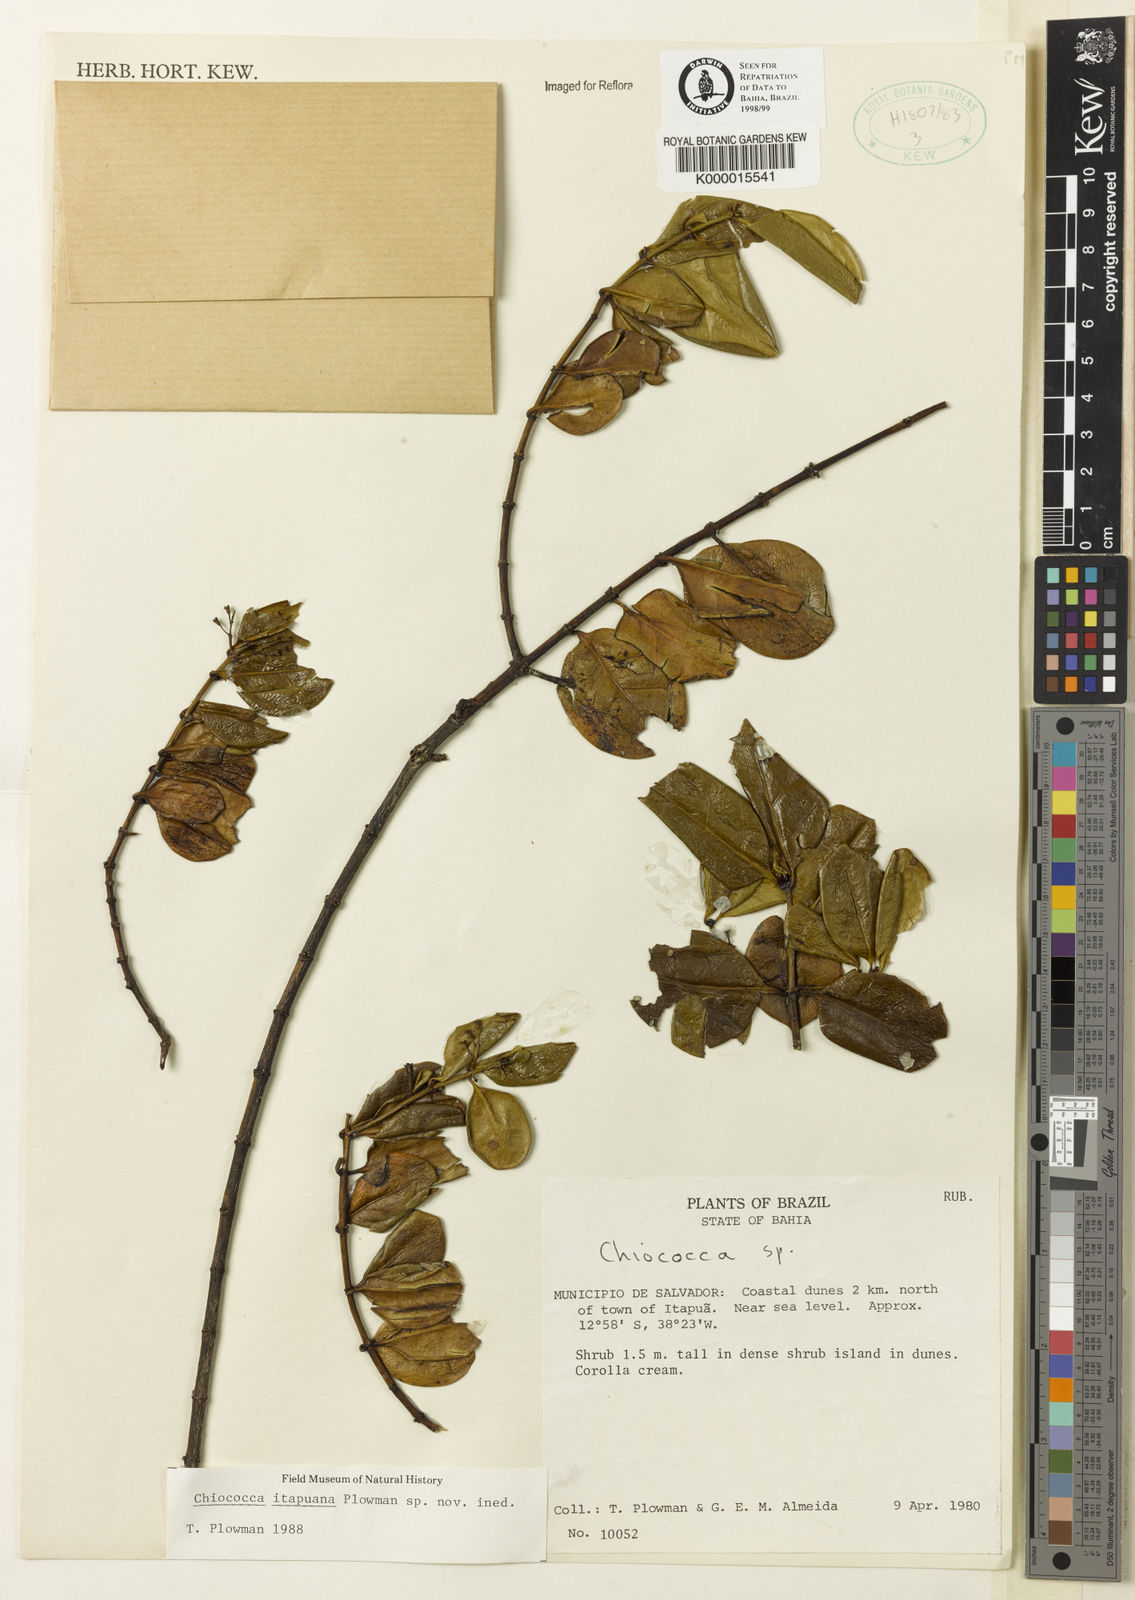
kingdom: Plantae
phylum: Tracheophyta
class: Magnoliopsida
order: Gentianales
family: Rubiaceae
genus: Chiococca
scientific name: Chiococca
